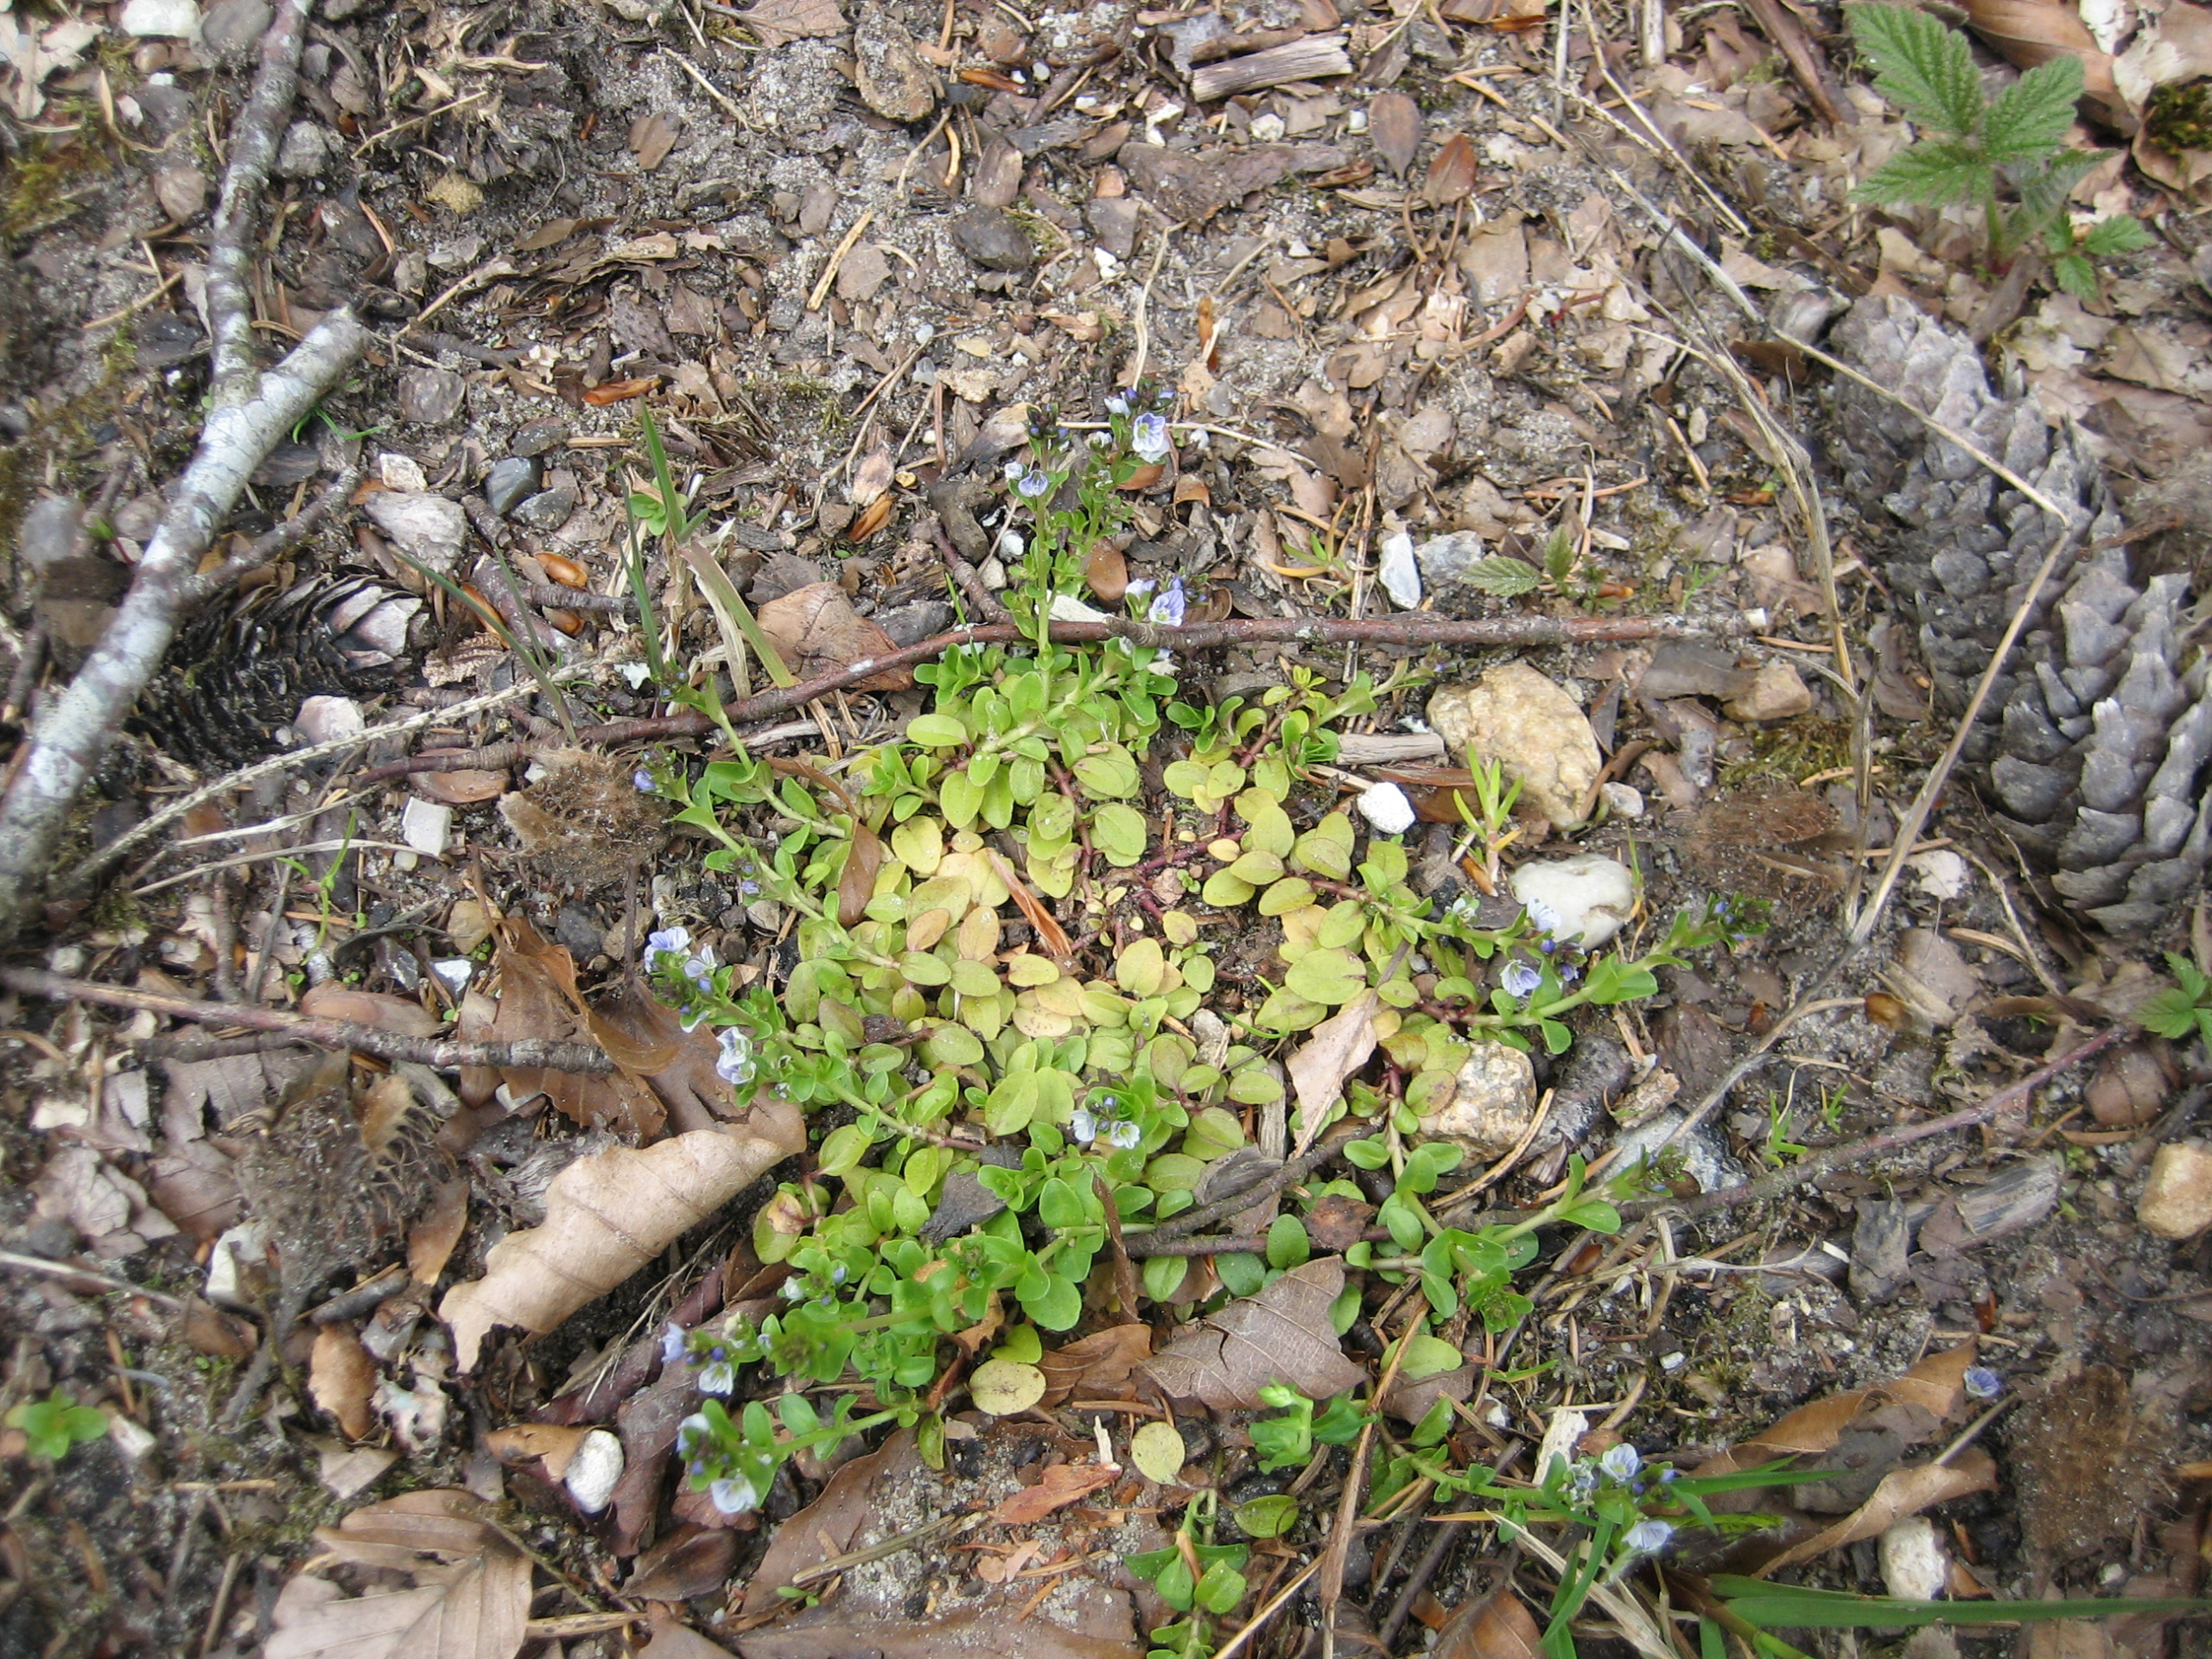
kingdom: Plantae
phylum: Tracheophyta
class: Magnoliopsida
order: Lamiales
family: Plantaginaceae
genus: Veronica
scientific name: Veronica serpyllifolia
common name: Glat ærenpris
